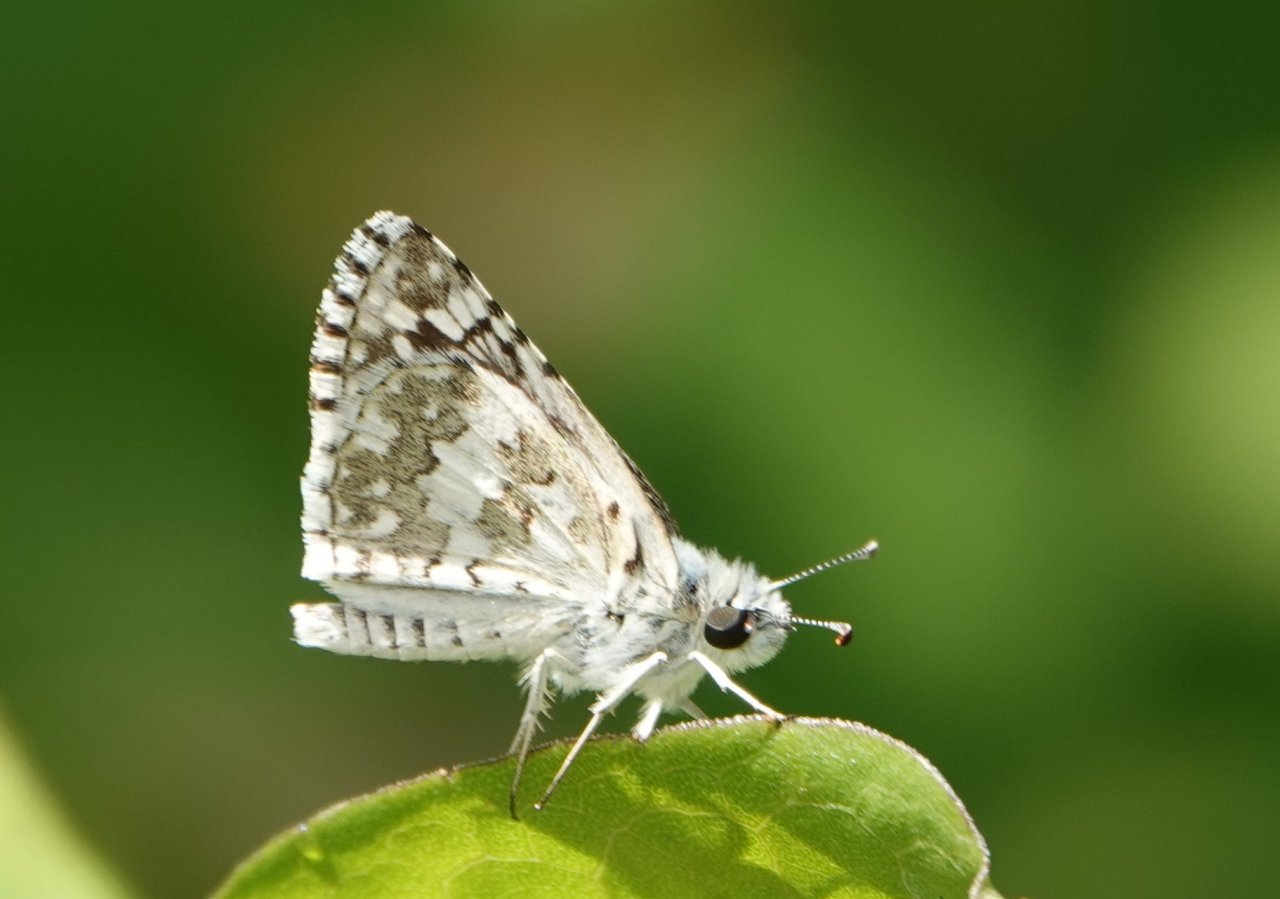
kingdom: Animalia
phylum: Arthropoda
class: Insecta
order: Lepidoptera
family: Hesperiidae
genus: Pyrgus
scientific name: Pyrgus communis
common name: White Checkered-Skipper
